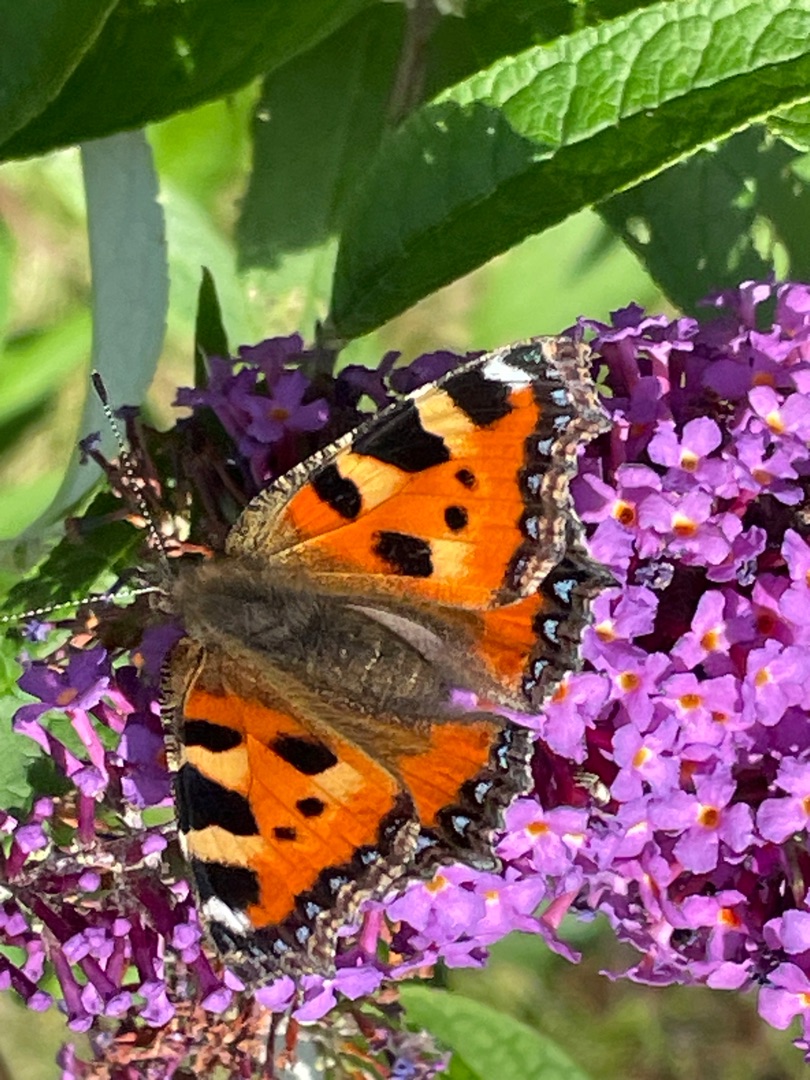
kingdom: Animalia
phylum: Arthropoda
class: Insecta
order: Lepidoptera
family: Nymphalidae
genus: Aglais
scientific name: Aglais urticae
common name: Nældens takvinge
